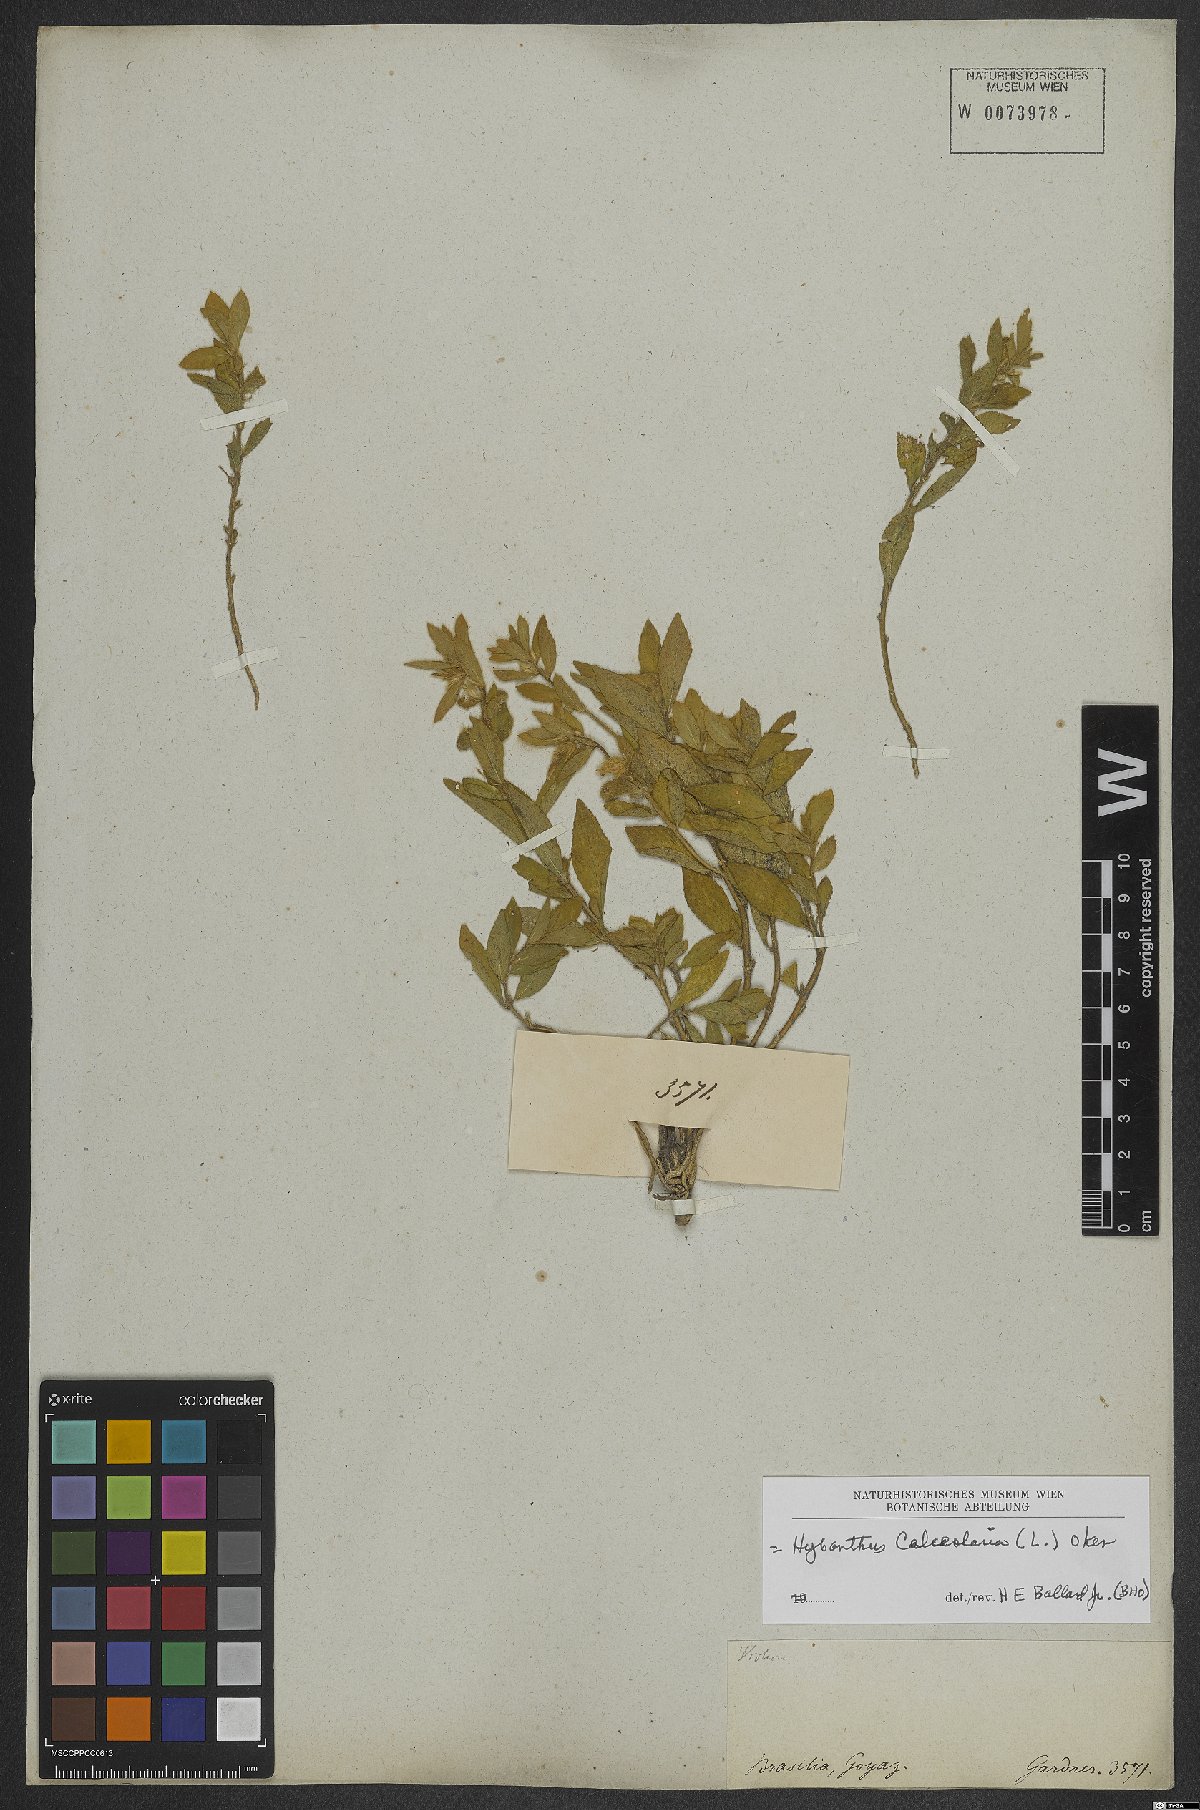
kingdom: Plantae
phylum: Tracheophyta
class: Magnoliopsida
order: Malpighiales
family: Violaceae
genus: Pombalia
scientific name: Pombalia calceolaria
